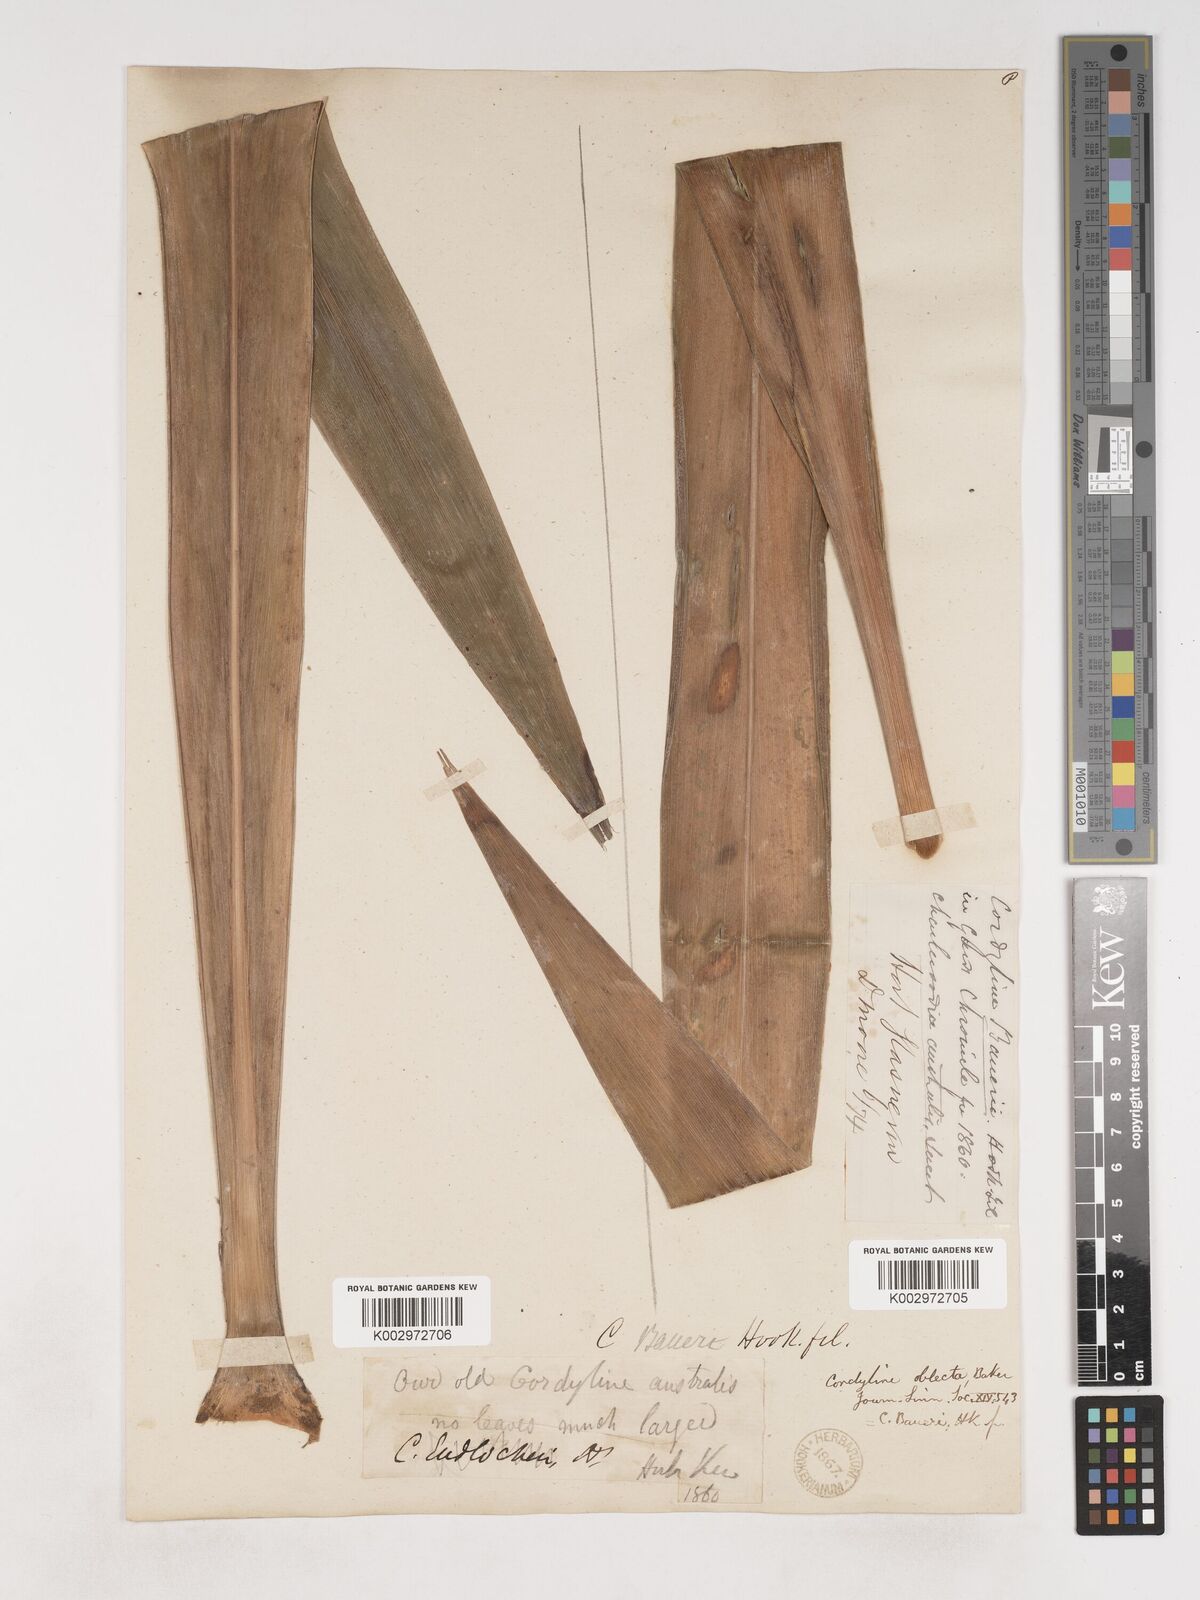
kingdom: Plantae
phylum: Tracheophyta
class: Liliopsida
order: Asparagales
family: Asparagaceae
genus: Cordyline
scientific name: Cordyline obtecta
